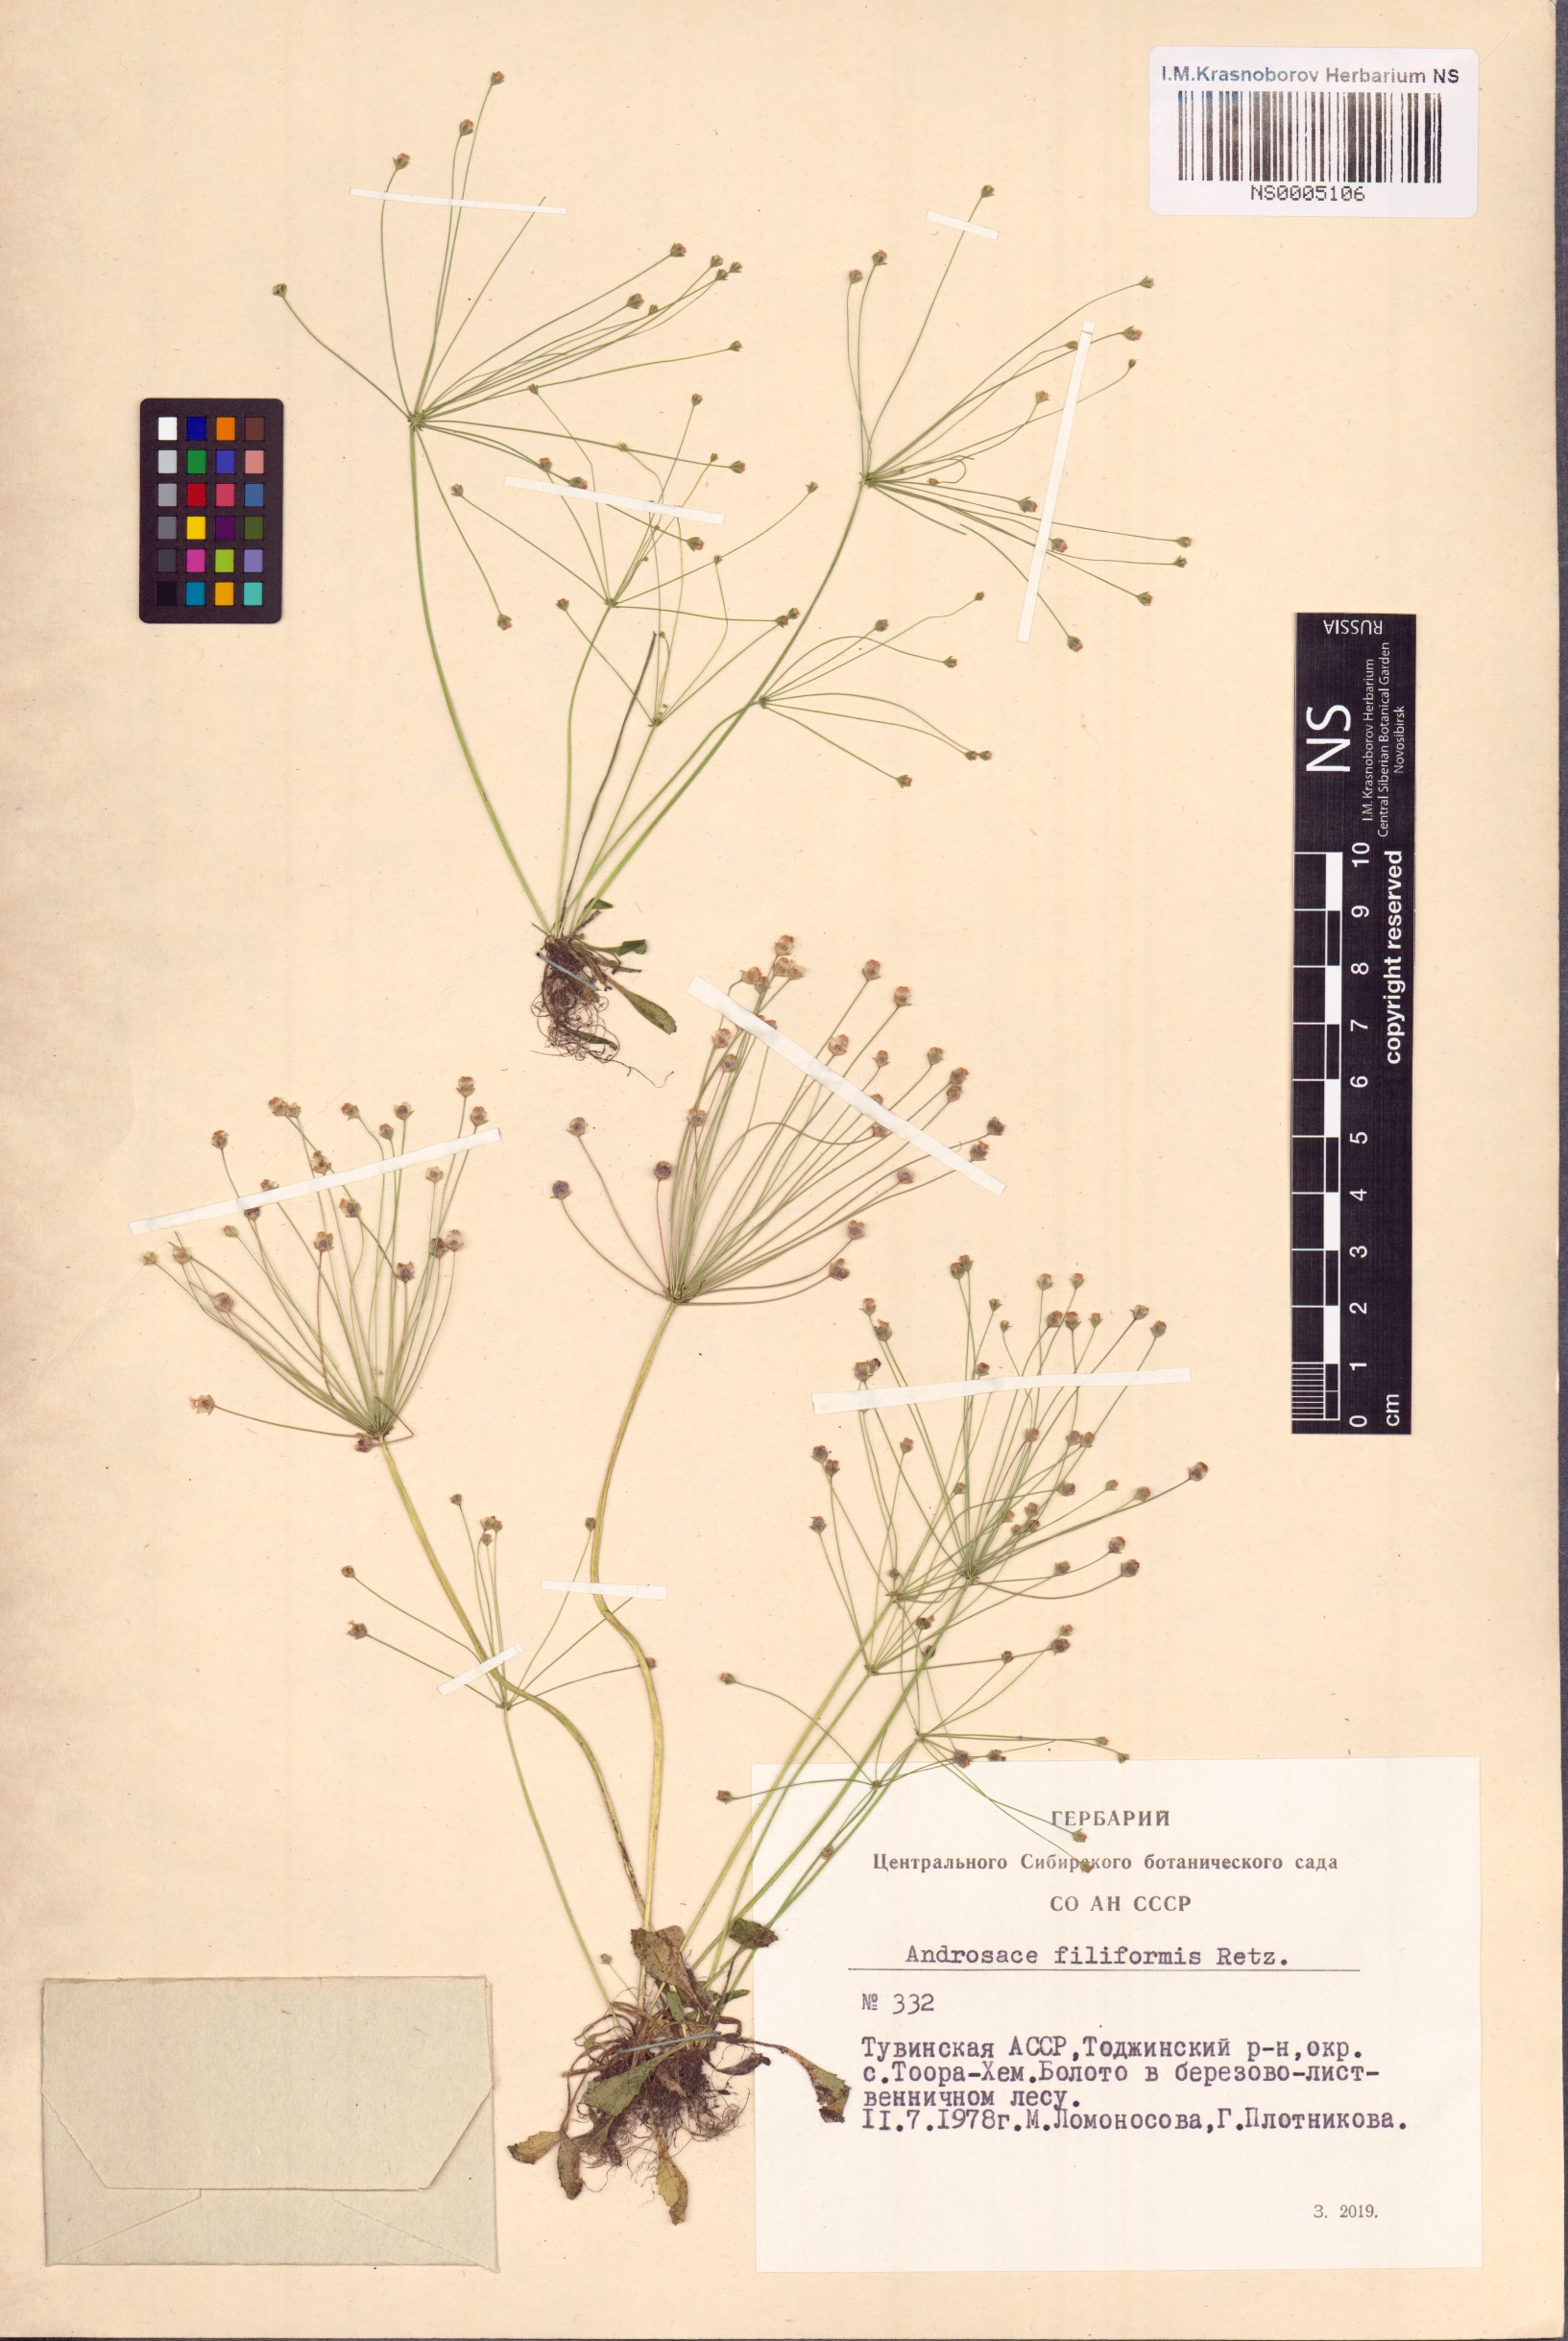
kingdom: Plantae
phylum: Tracheophyta
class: Magnoliopsida
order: Ericales
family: Primulaceae
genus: Androsace
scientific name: Androsace filiformis
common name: Filiform rock jasmine
